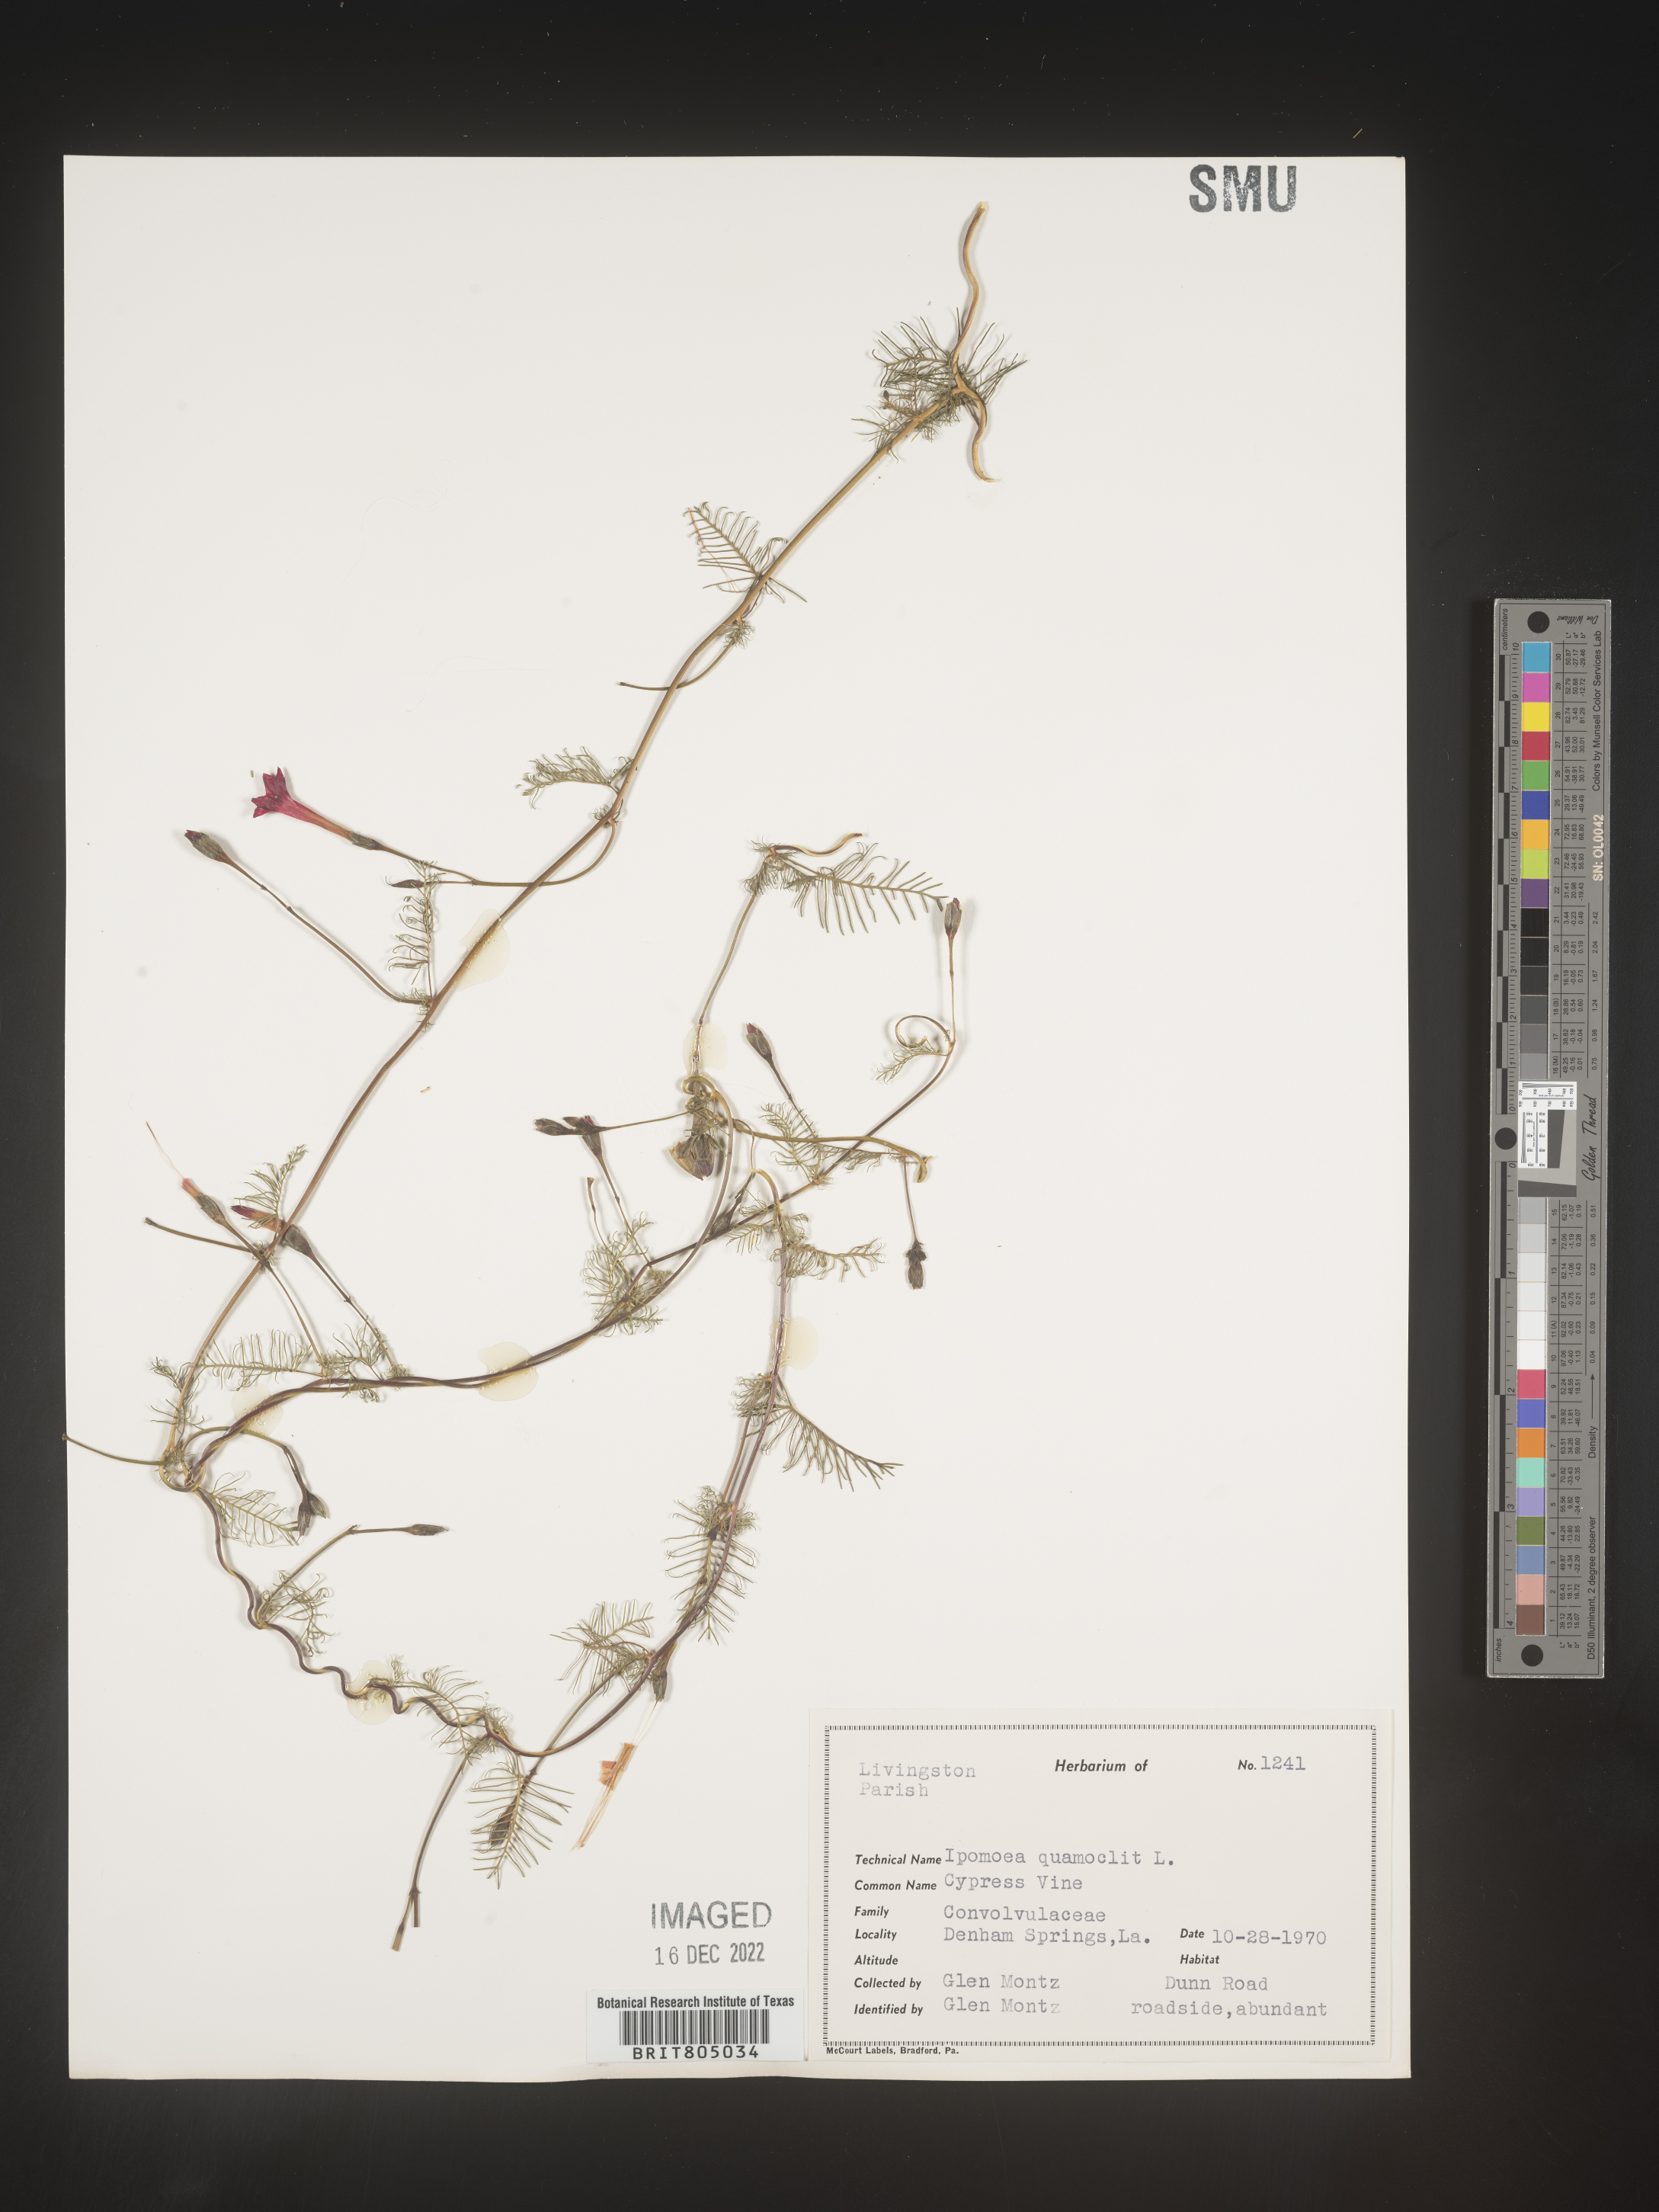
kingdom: Plantae
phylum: Tracheophyta
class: Magnoliopsida
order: Solanales
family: Convolvulaceae
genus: Ipomoea
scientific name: Ipomoea quamoclit
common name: Cypress vine
